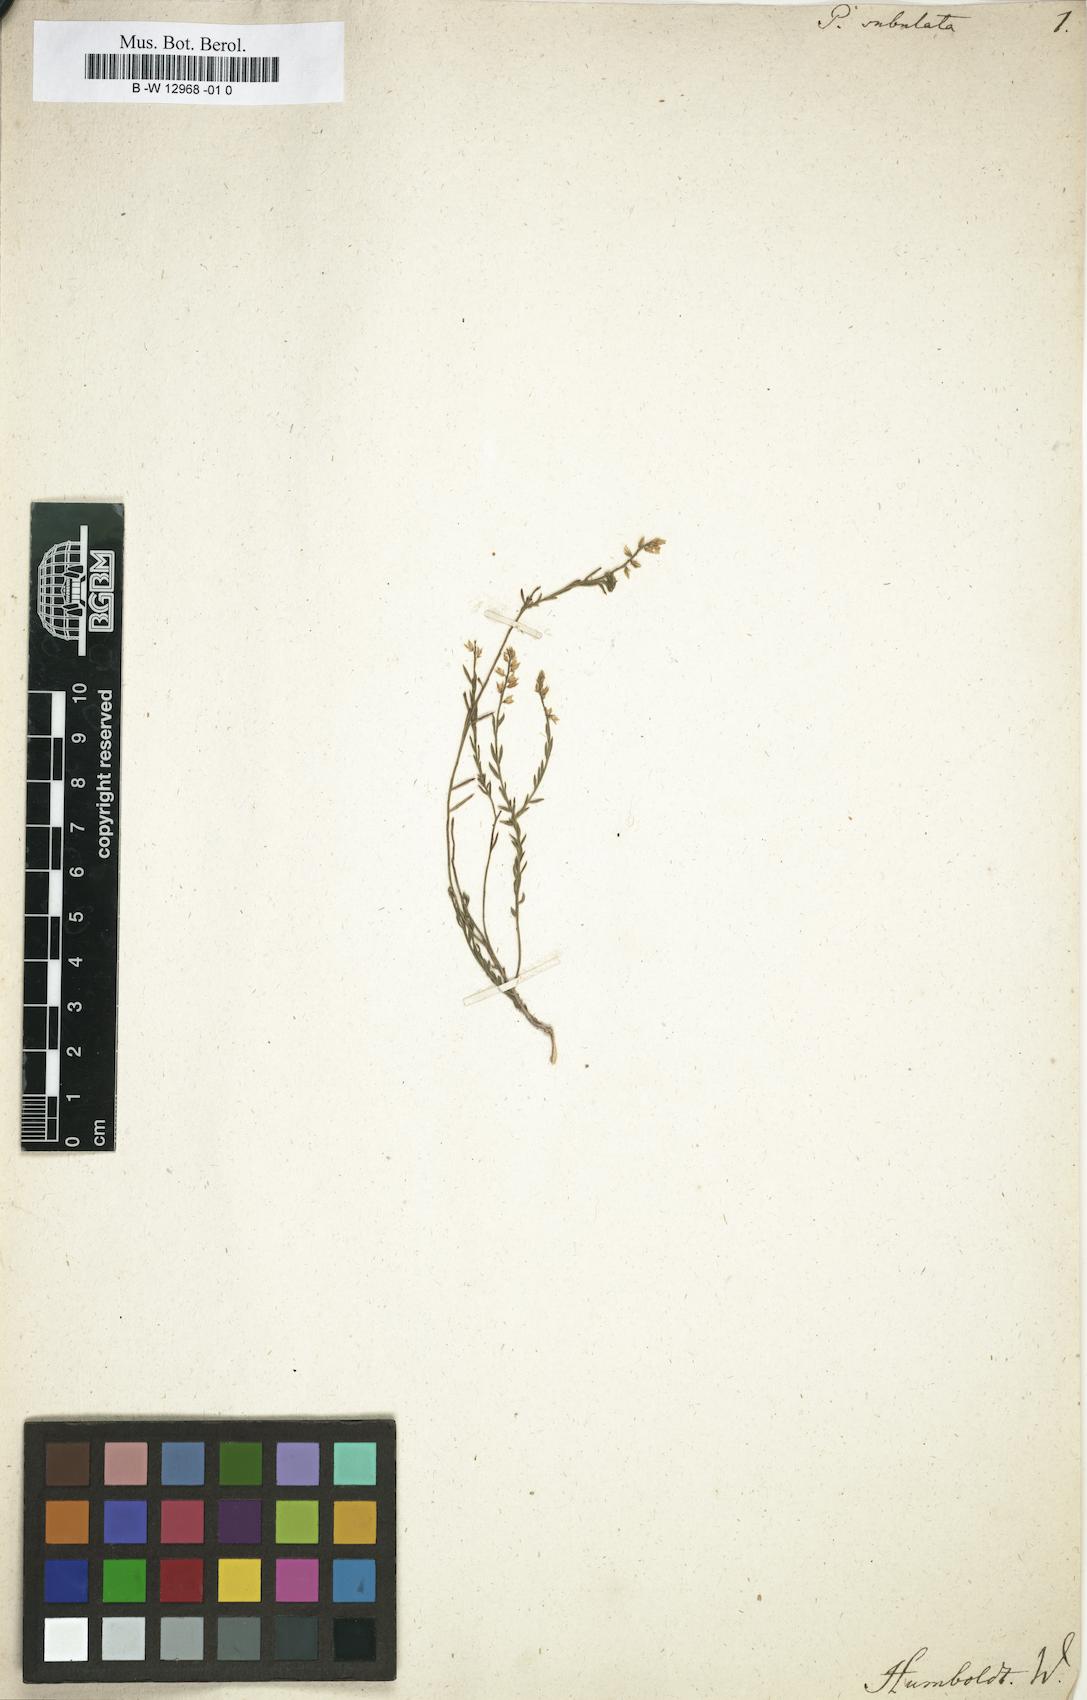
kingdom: Plantae
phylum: Tracheophyta
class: Magnoliopsida
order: Fabales
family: Polygalaceae
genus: Polygala
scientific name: Polygala subulata
